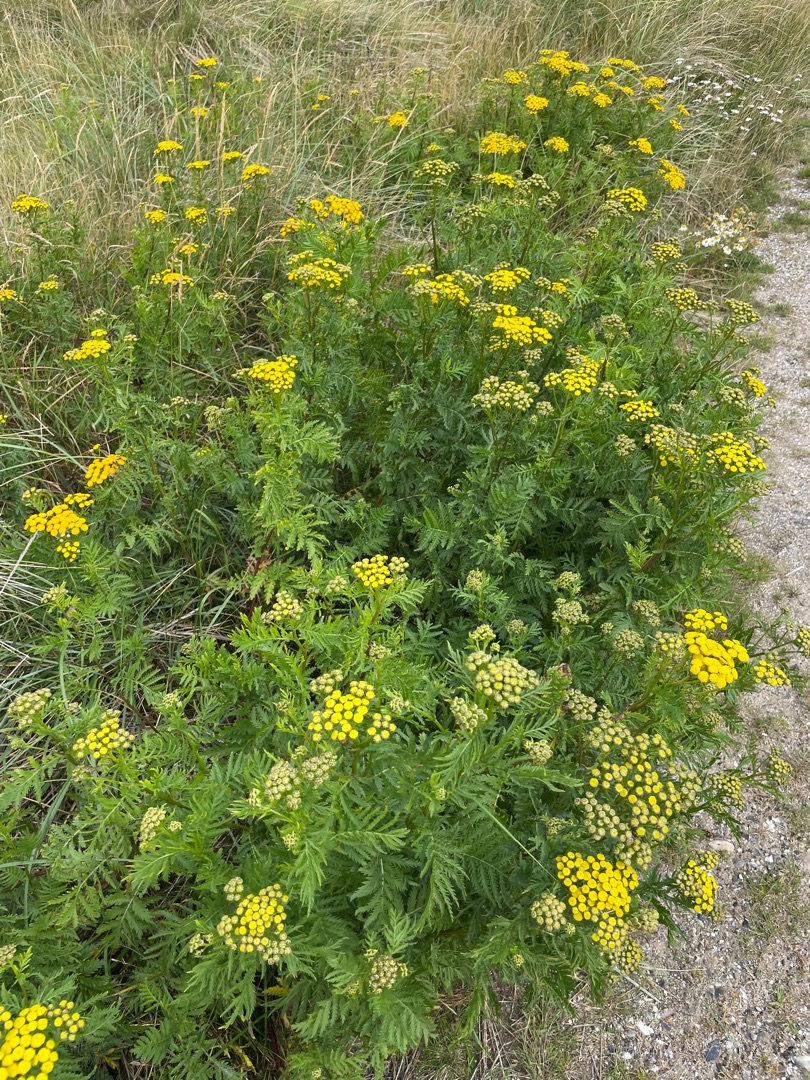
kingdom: Plantae
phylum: Tracheophyta
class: Magnoliopsida
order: Asterales
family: Asteraceae
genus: Tanacetum
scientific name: Tanacetum vulgare
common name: Rejnfan
